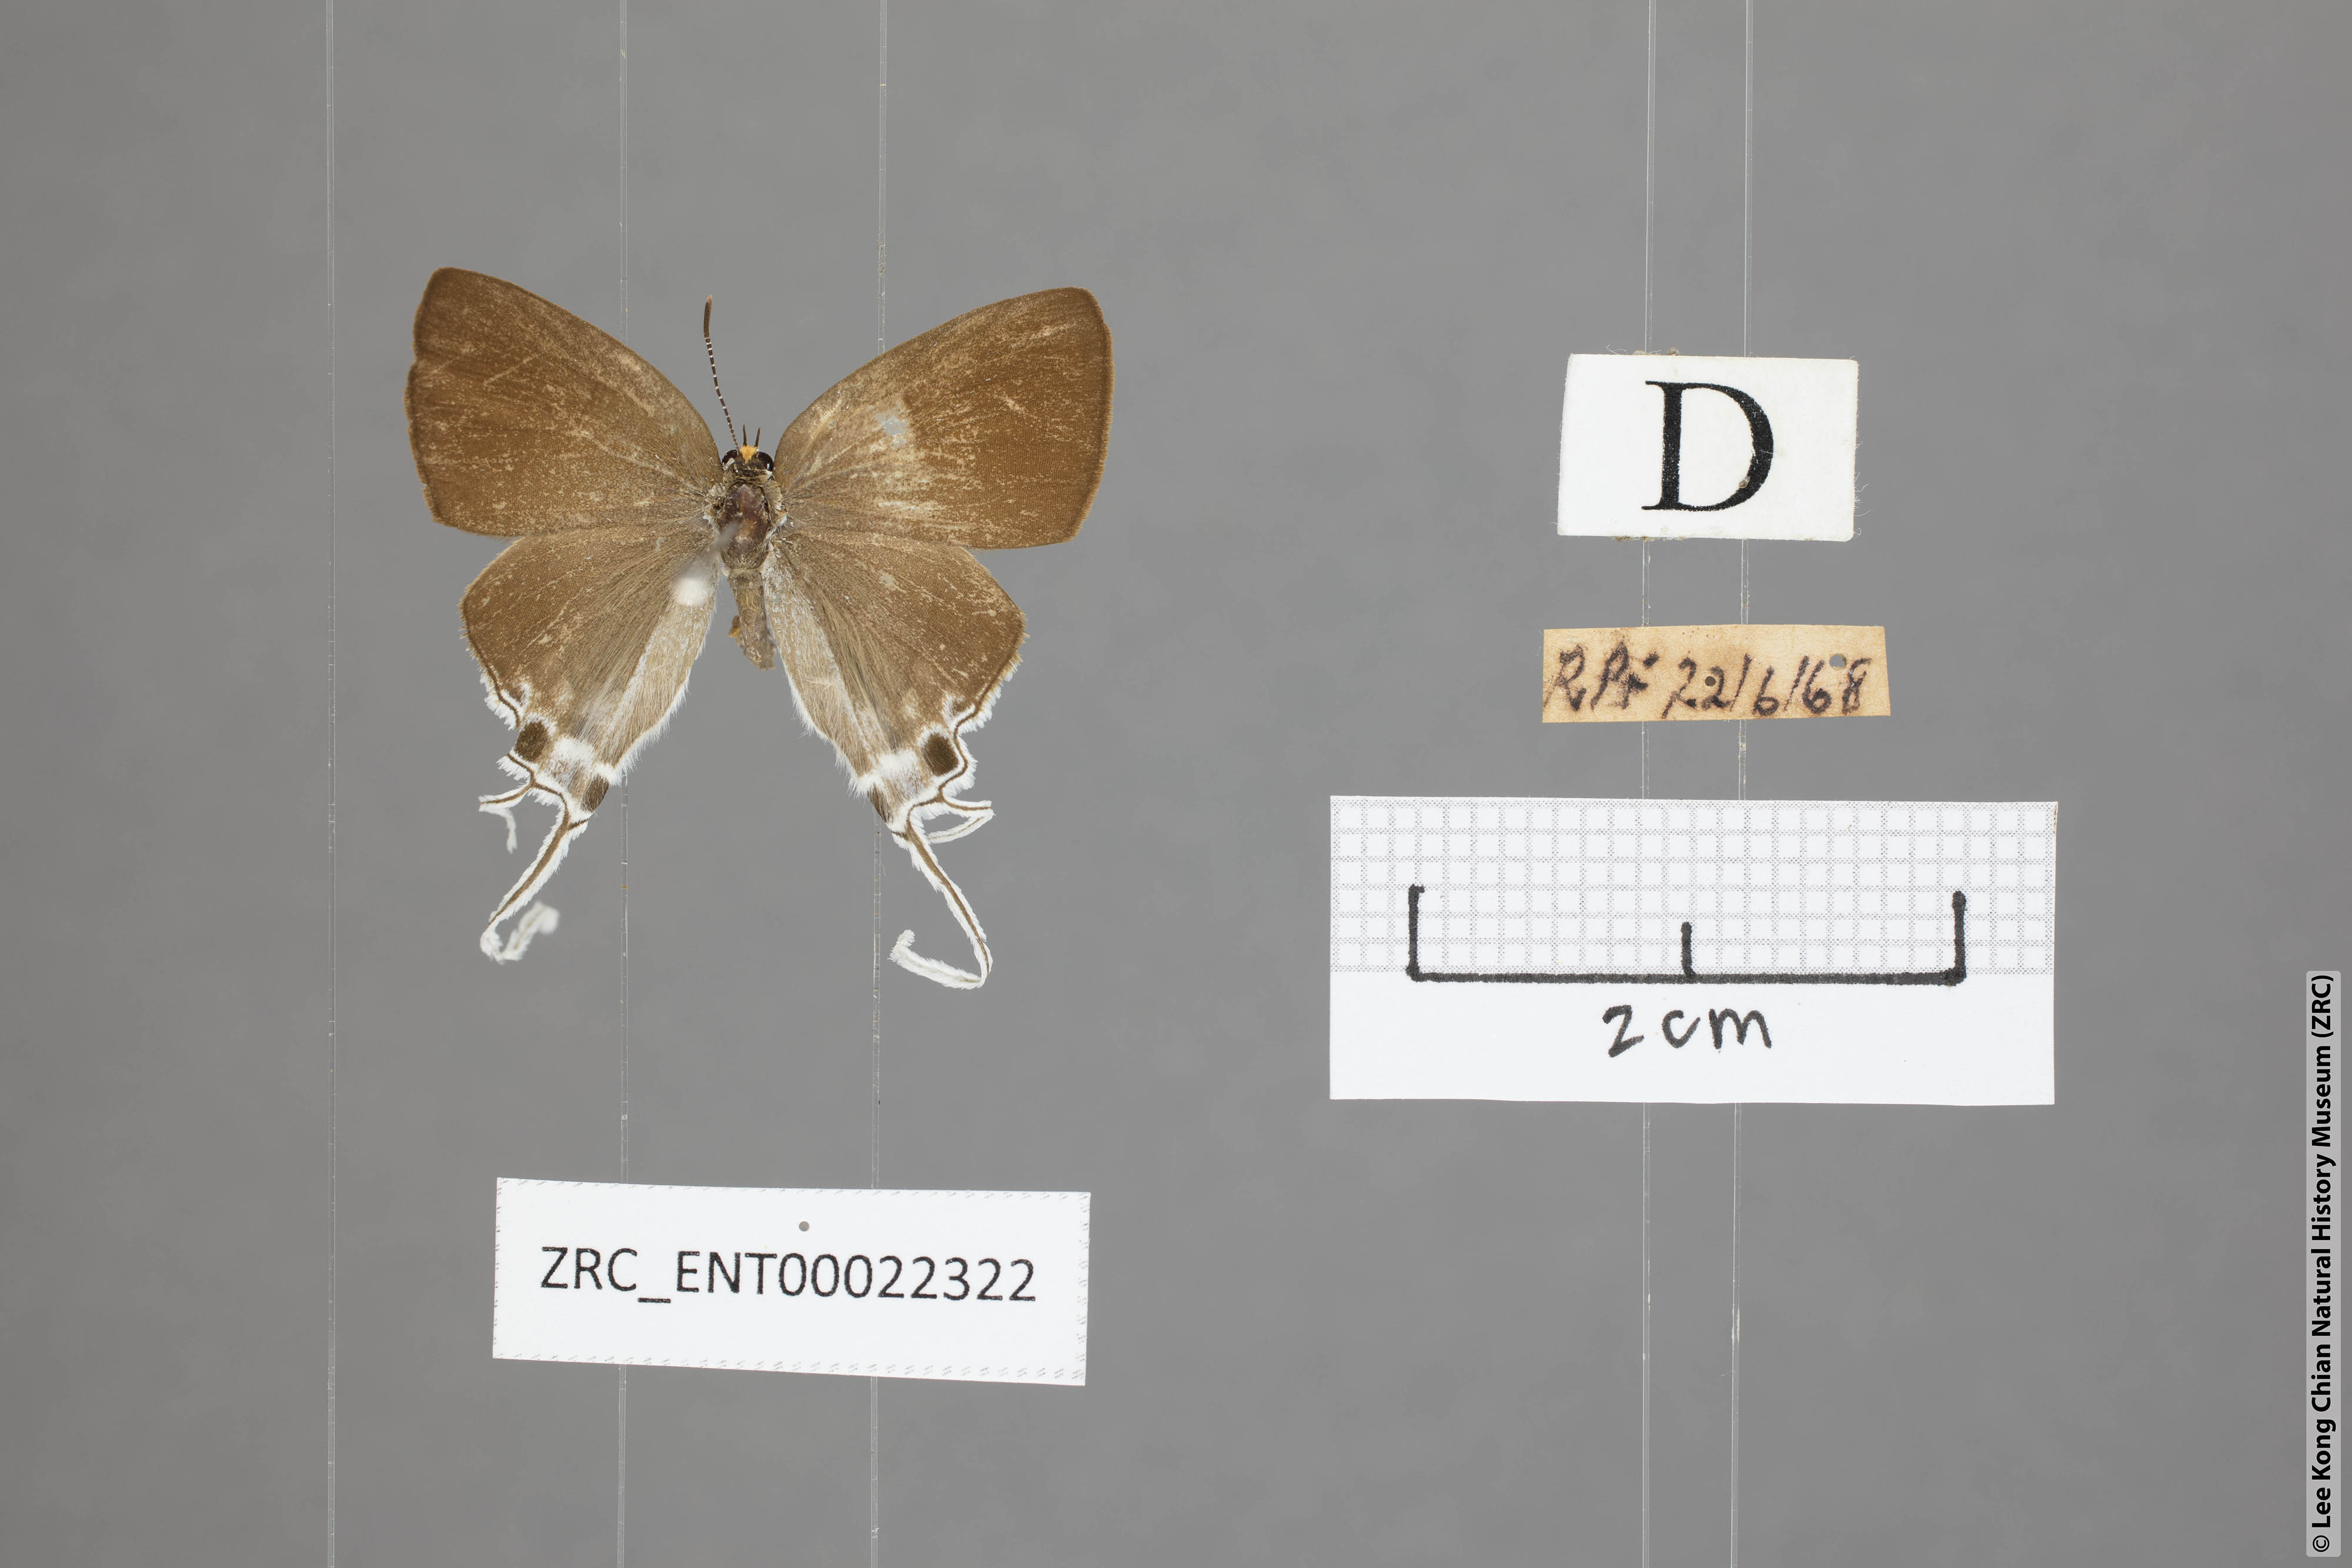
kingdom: Animalia
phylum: Arthropoda
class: Insecta
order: Lepidoptera
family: Lycaenidae
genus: Zeltus
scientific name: Zeltus amasa
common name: Fluffy tit
